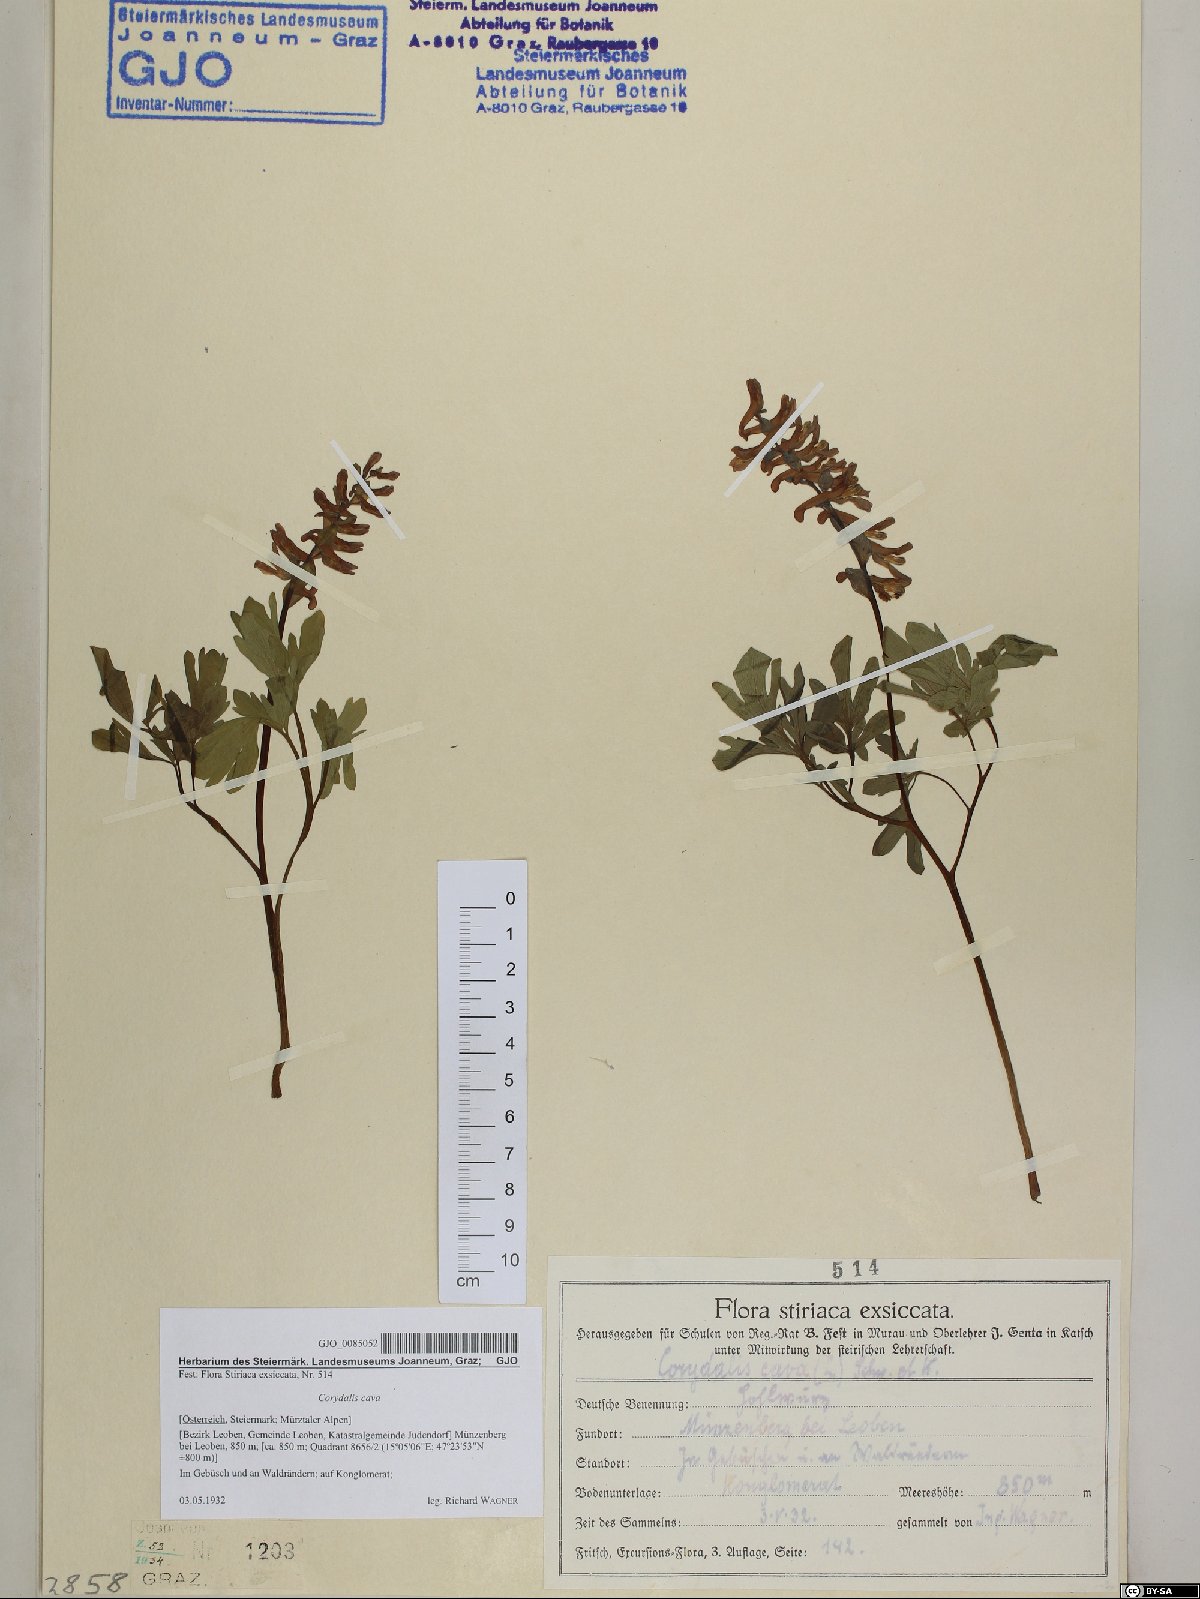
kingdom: Plantae
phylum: Tracheophyta
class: Magnoliopsida
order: Ranunculales
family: Papaveraceae
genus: Corydalis
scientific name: Corydalis cava
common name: Hollowroot
